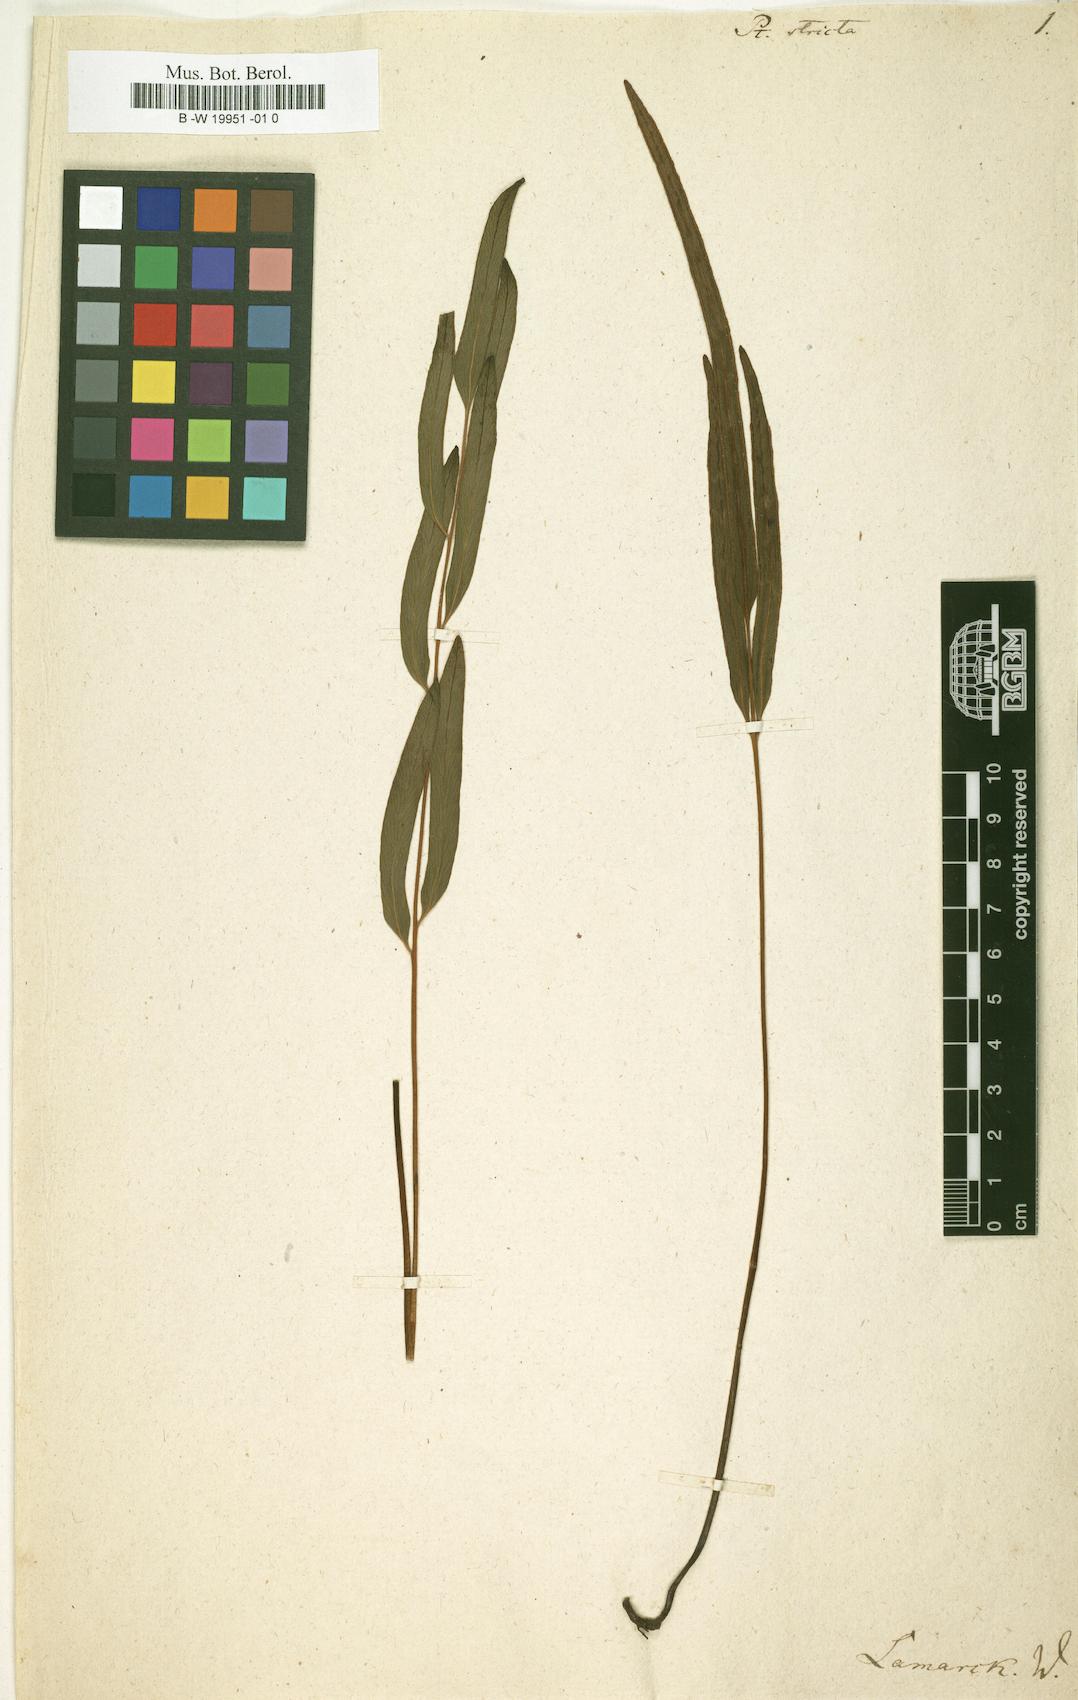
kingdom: Plantae
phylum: Tracheophyta
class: Polypodiopsida
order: Polypodiales
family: Pteridaceae
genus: Pteris
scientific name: Pteris ensiformis
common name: Sword brake
